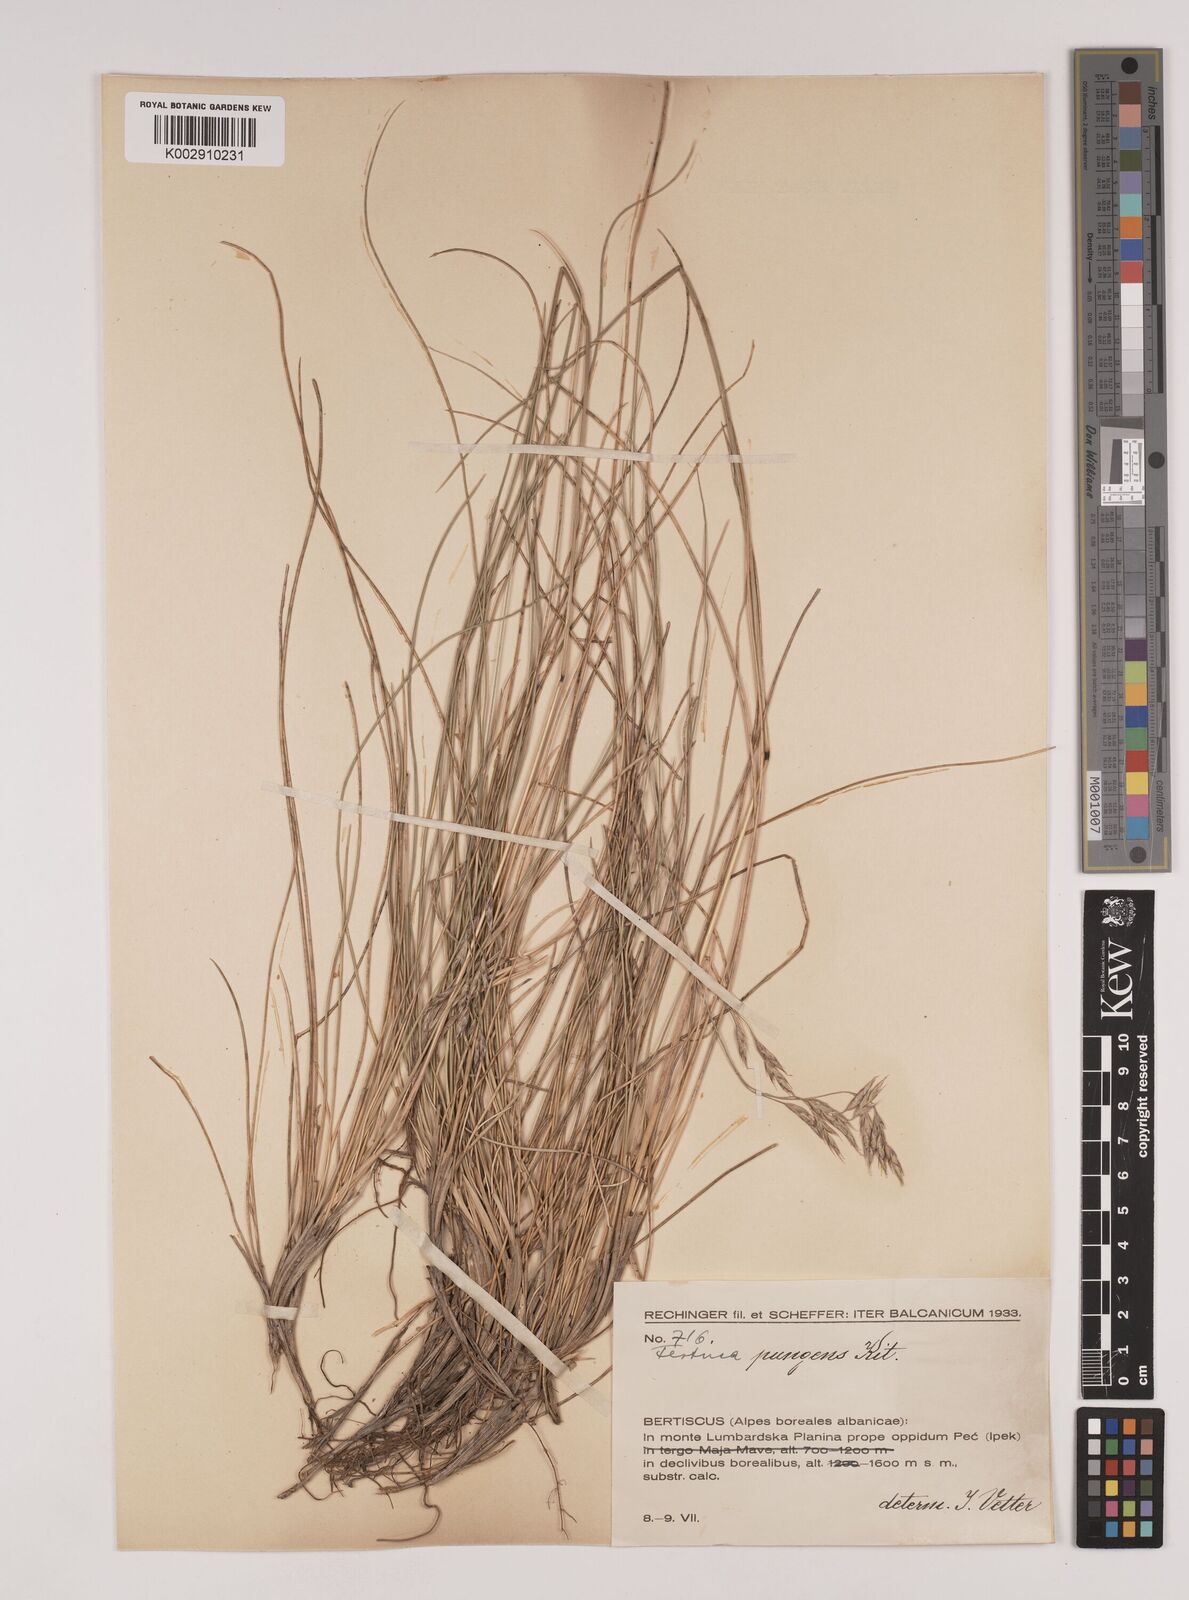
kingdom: Plantae
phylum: Tracheophyta
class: Liliopsida
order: Poales
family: Poaceae
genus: Festuca
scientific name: Festuca bosniaca
